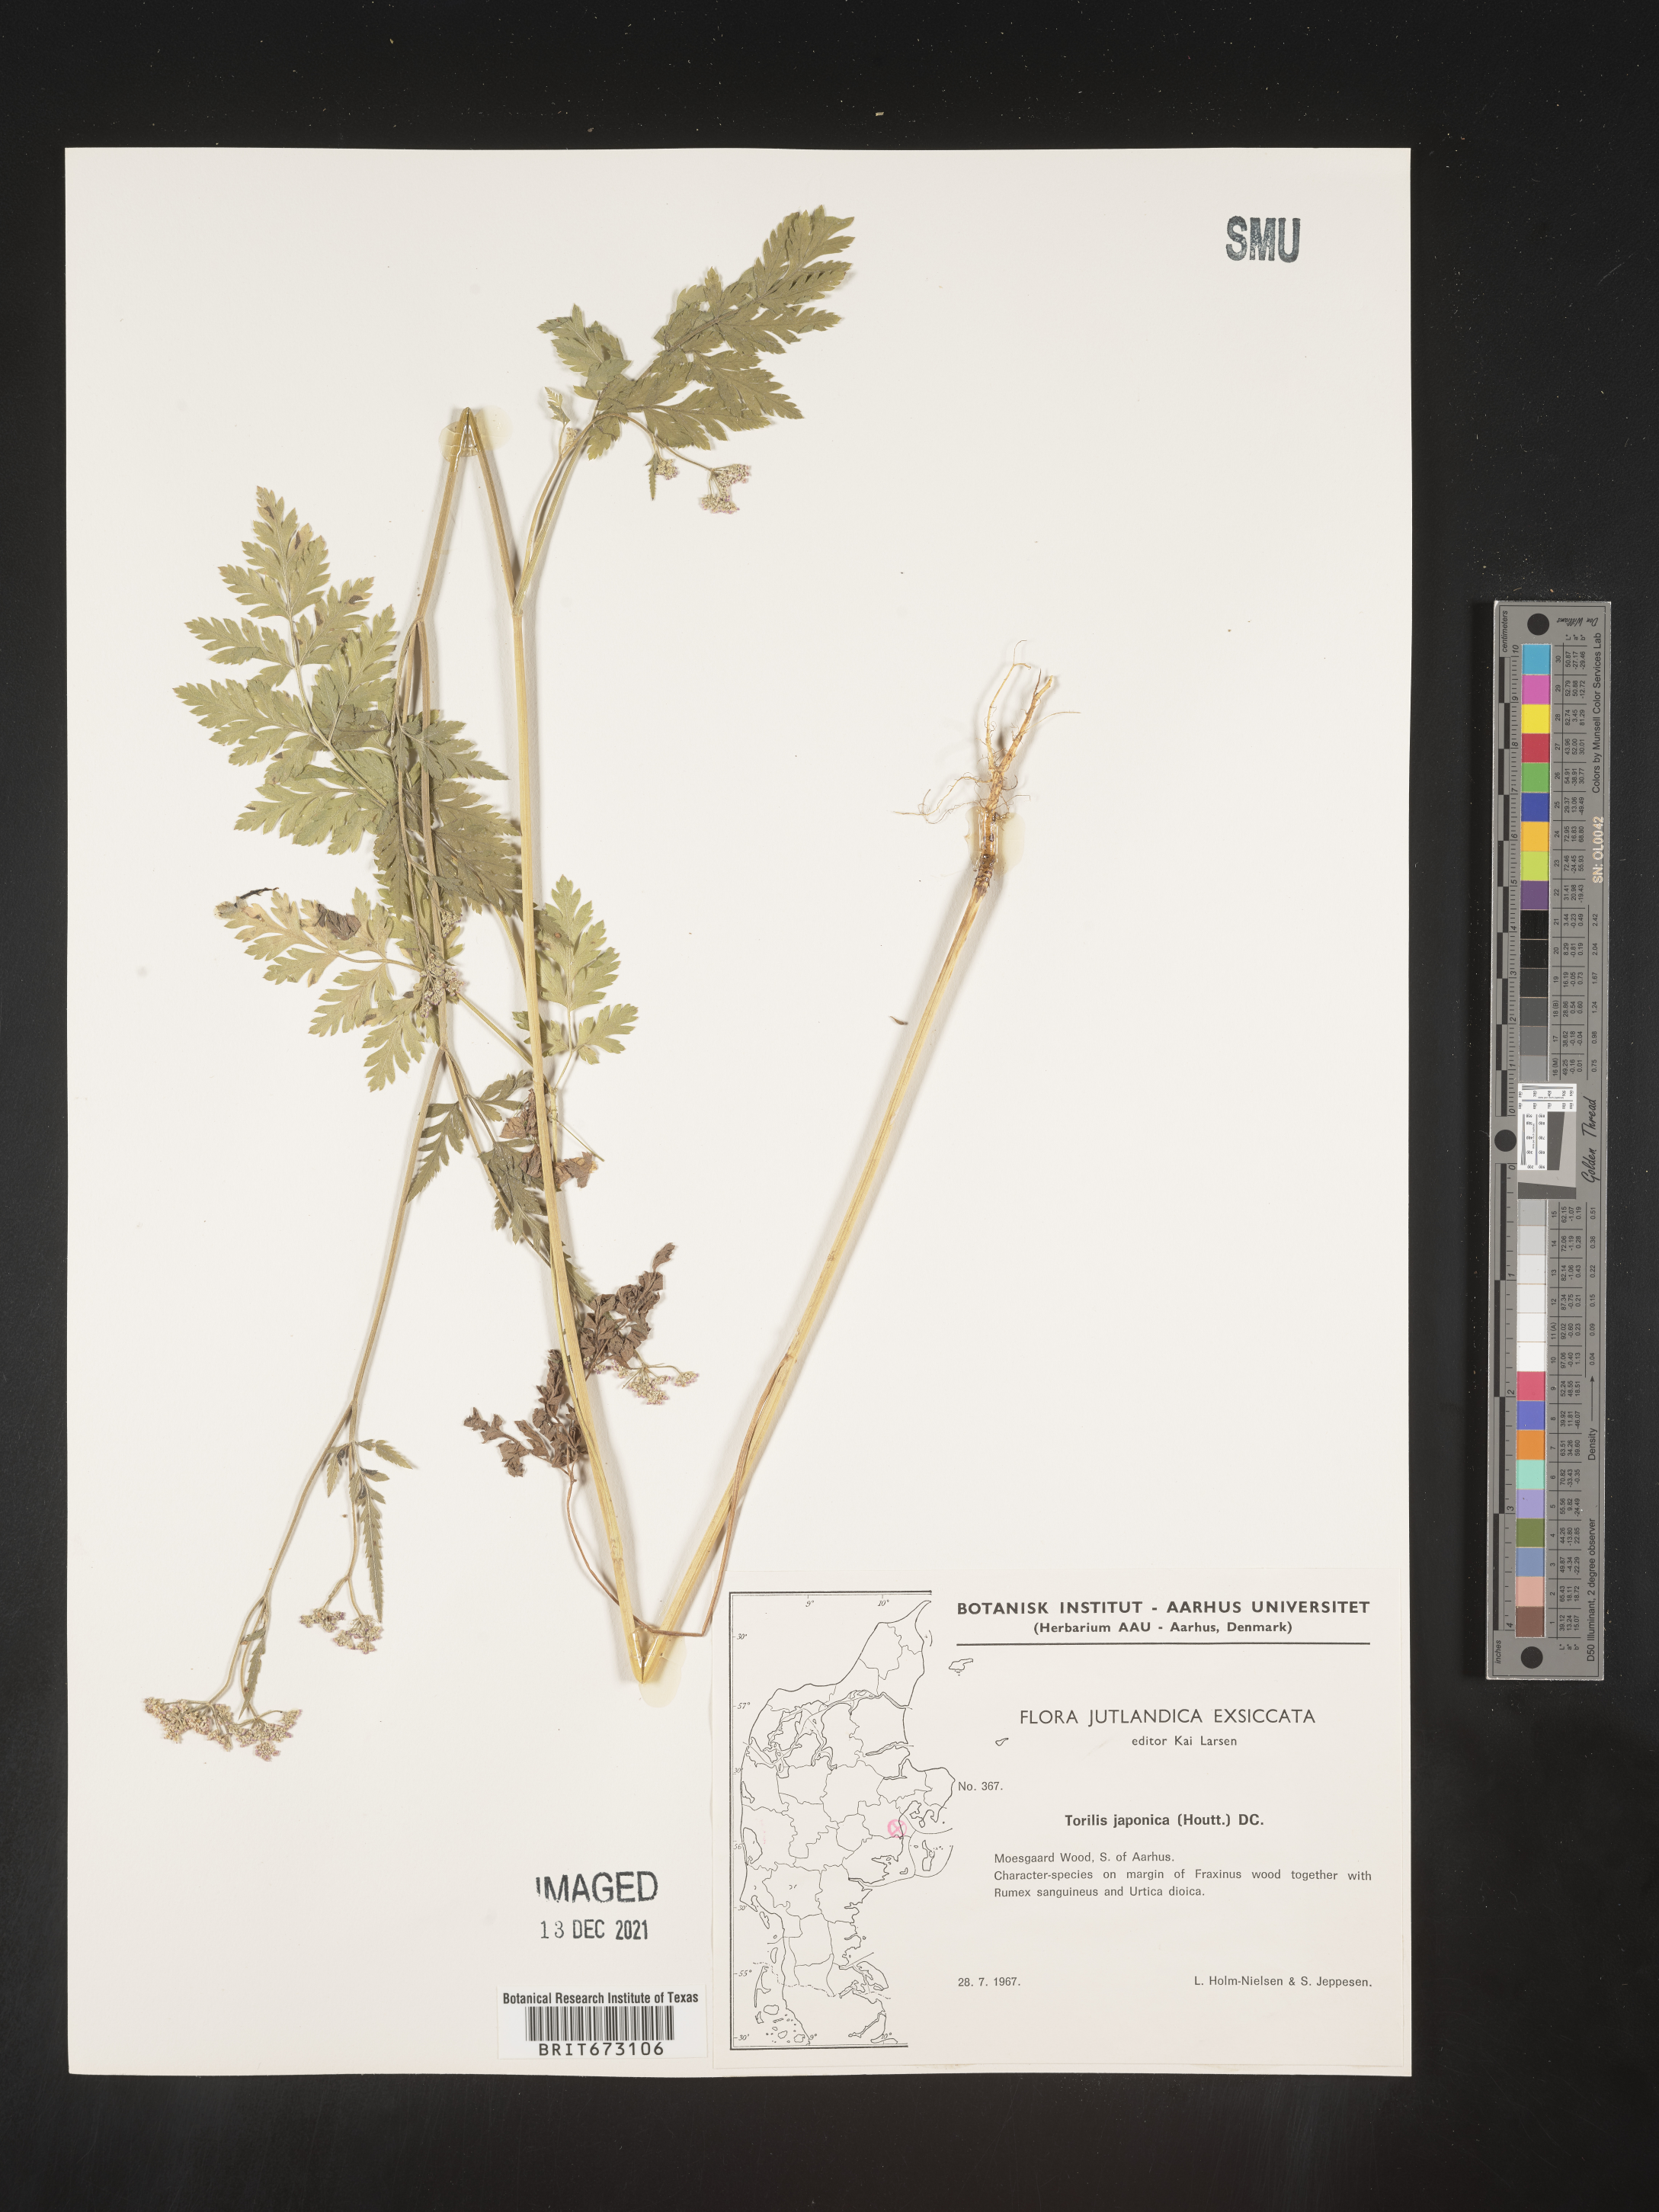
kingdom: Plantae
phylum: Tracheophyta
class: Magnoliopsida
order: Apiales
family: Apiaceae
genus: Torilis
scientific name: Torilis
